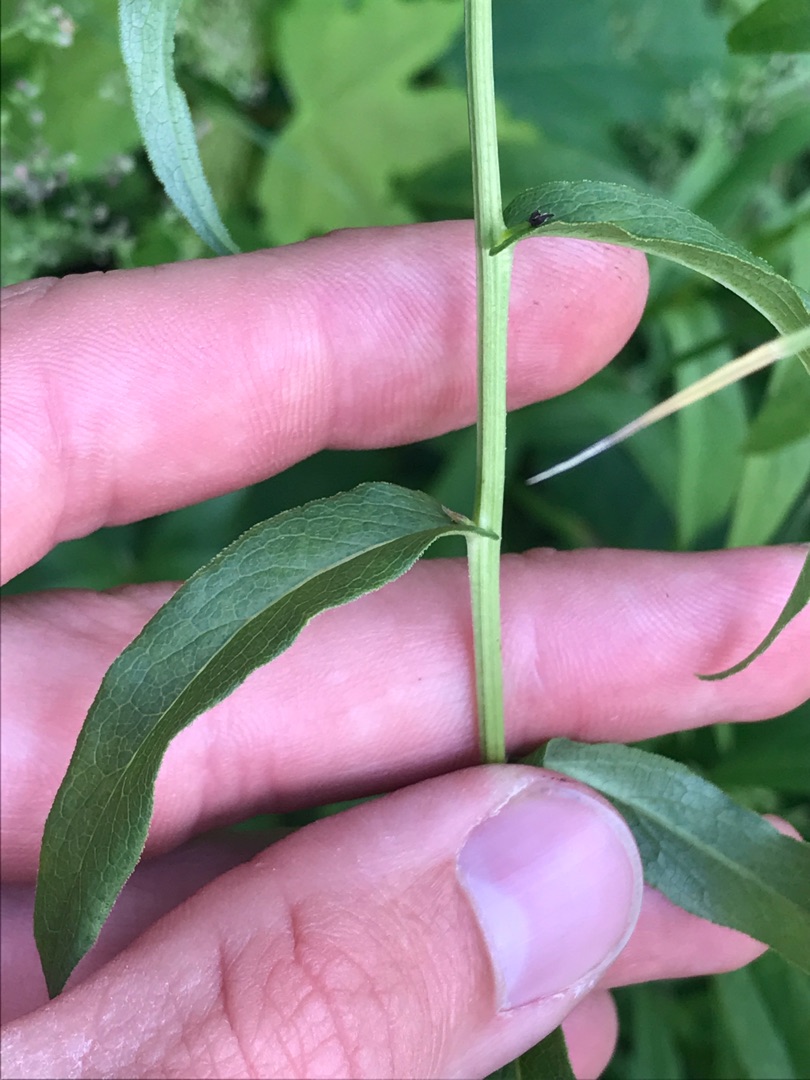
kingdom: Plantae
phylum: Tracheophyta
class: Magnoliopsida
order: Asterales
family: Asteraceae
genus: Pentanema
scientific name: Pentanema salicinum
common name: Pile-alant
